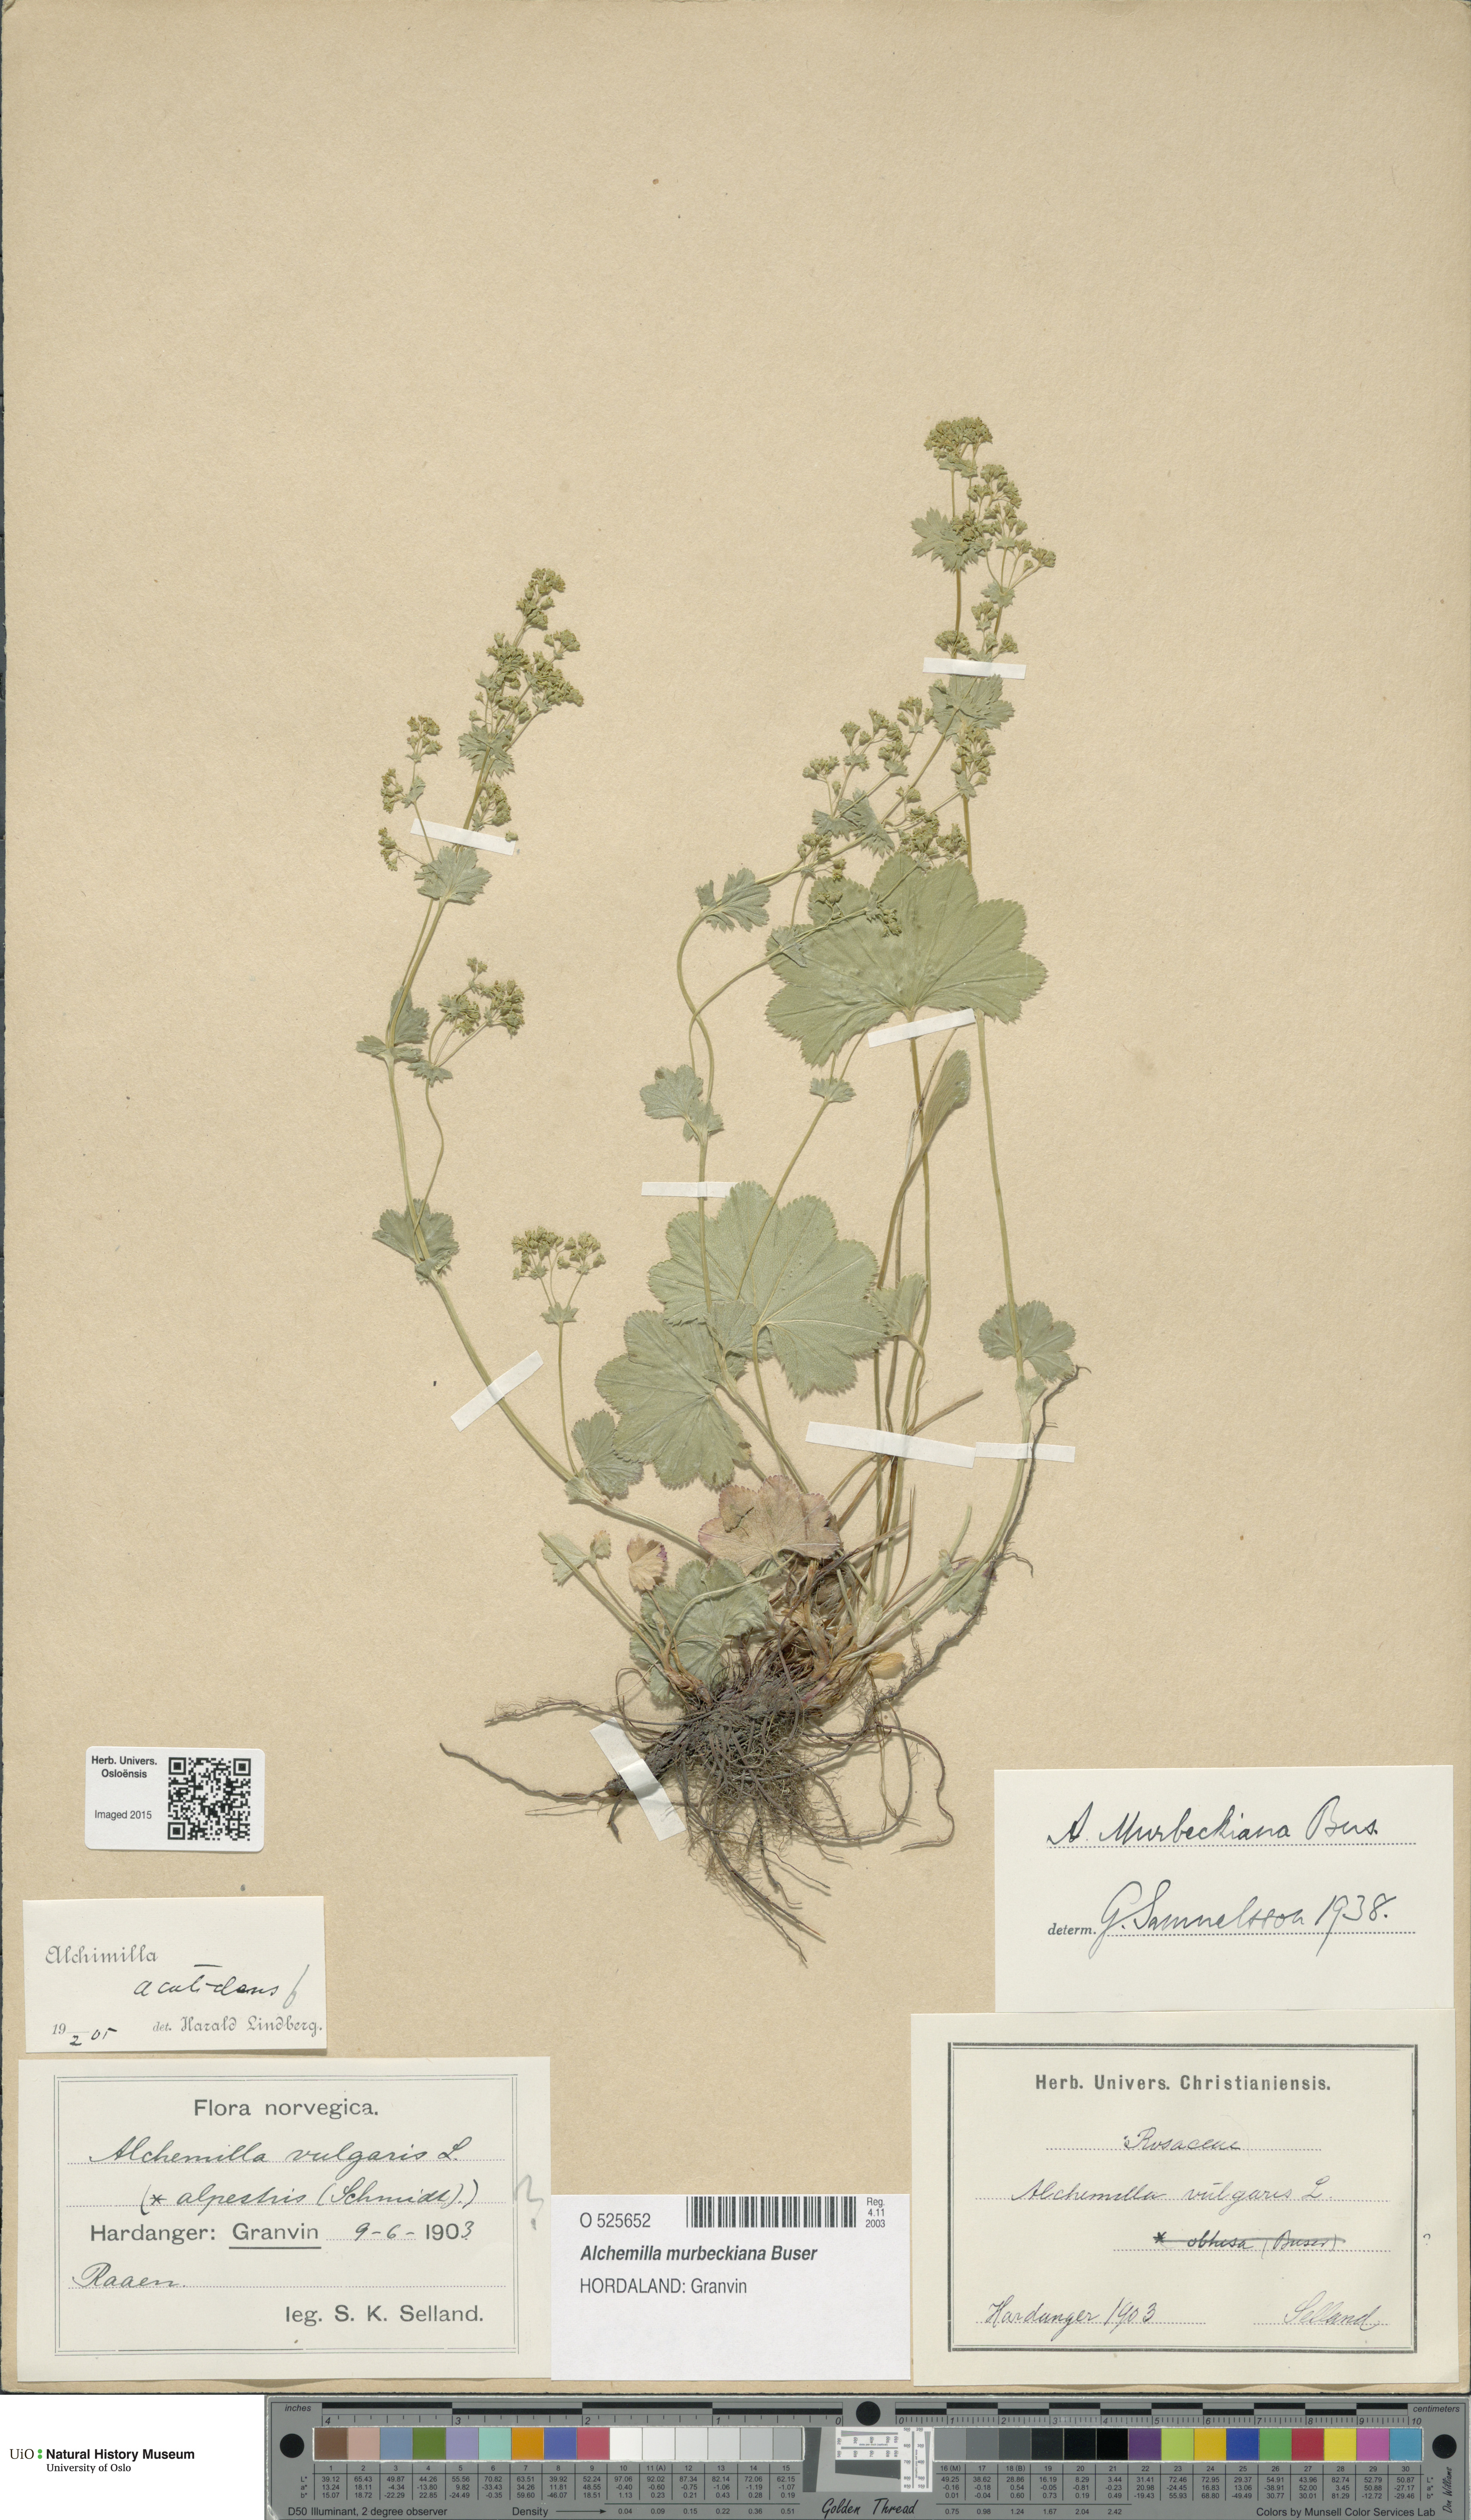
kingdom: Plantae
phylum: Tracheophyta
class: Magnoliopsida
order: Rosales
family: Rosaceae
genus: Alchemilla
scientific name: Alchemilla murbeckiana
